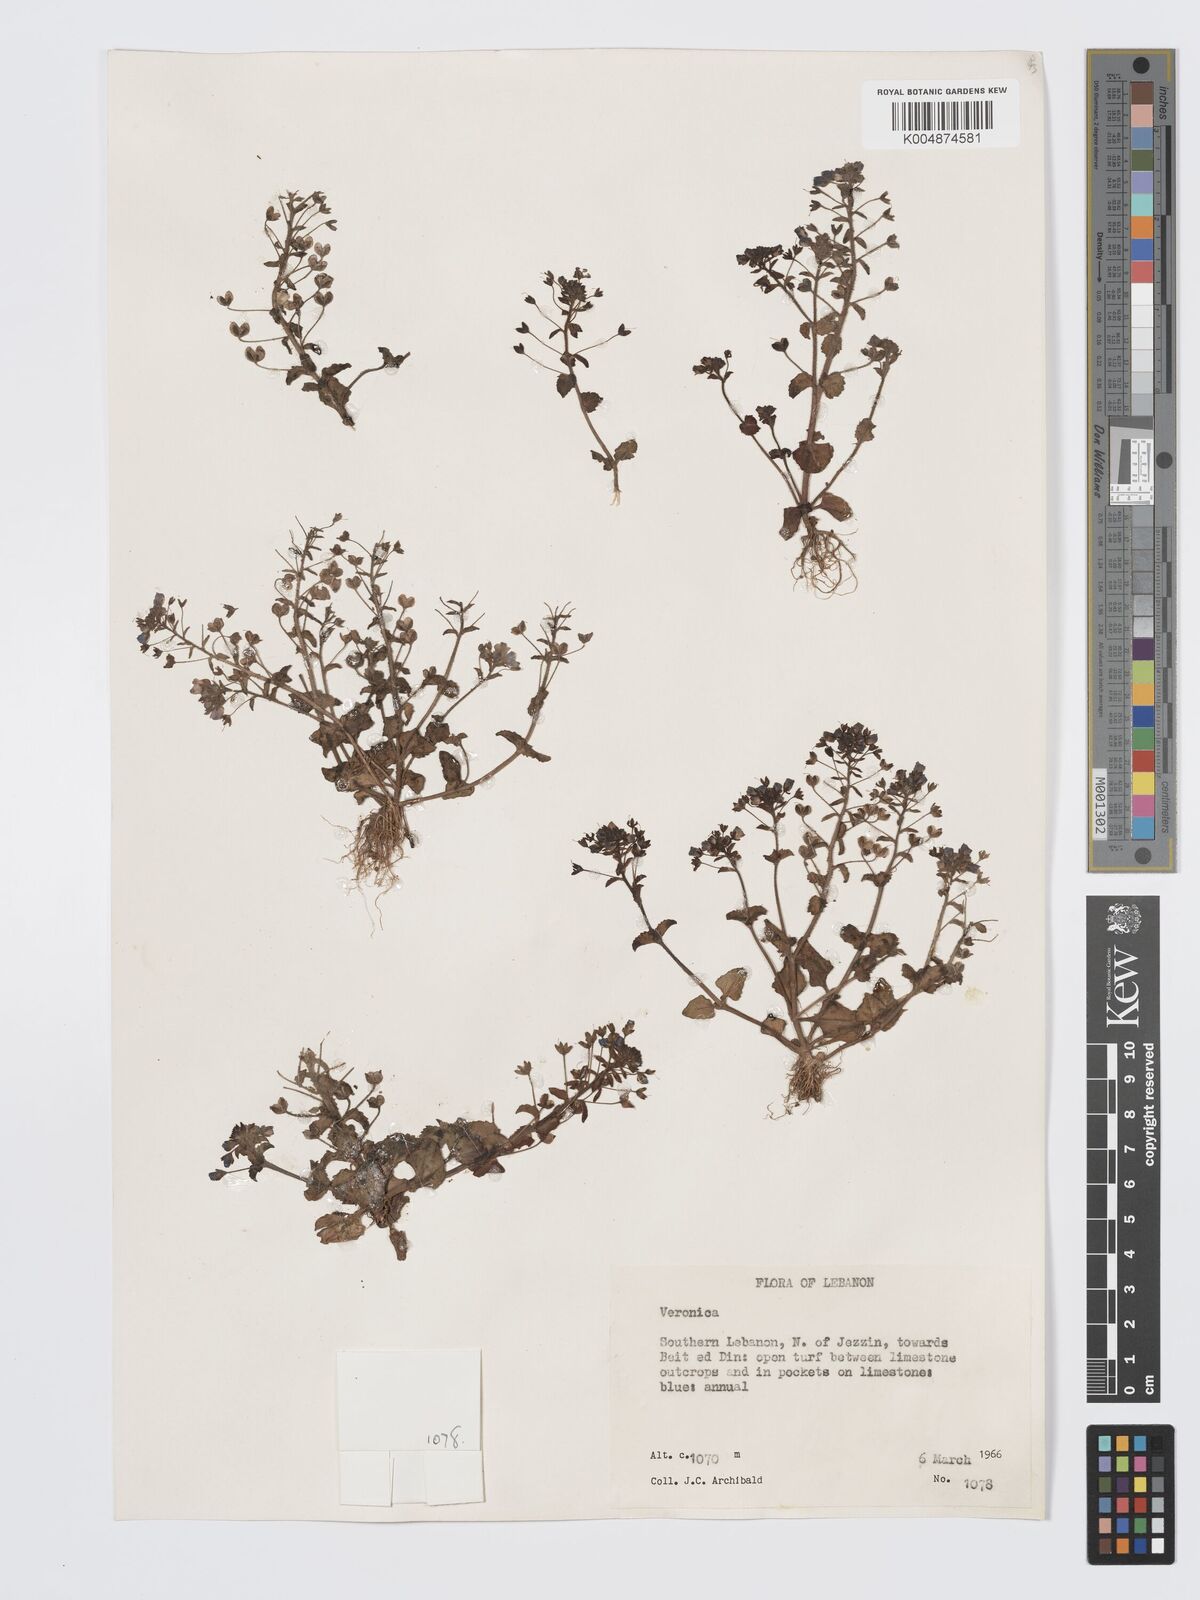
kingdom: Plantae
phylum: Tracheophyta
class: Magnoliopsida
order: Lamiales
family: Plantaginaceae
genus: Veronica
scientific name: Veronica
